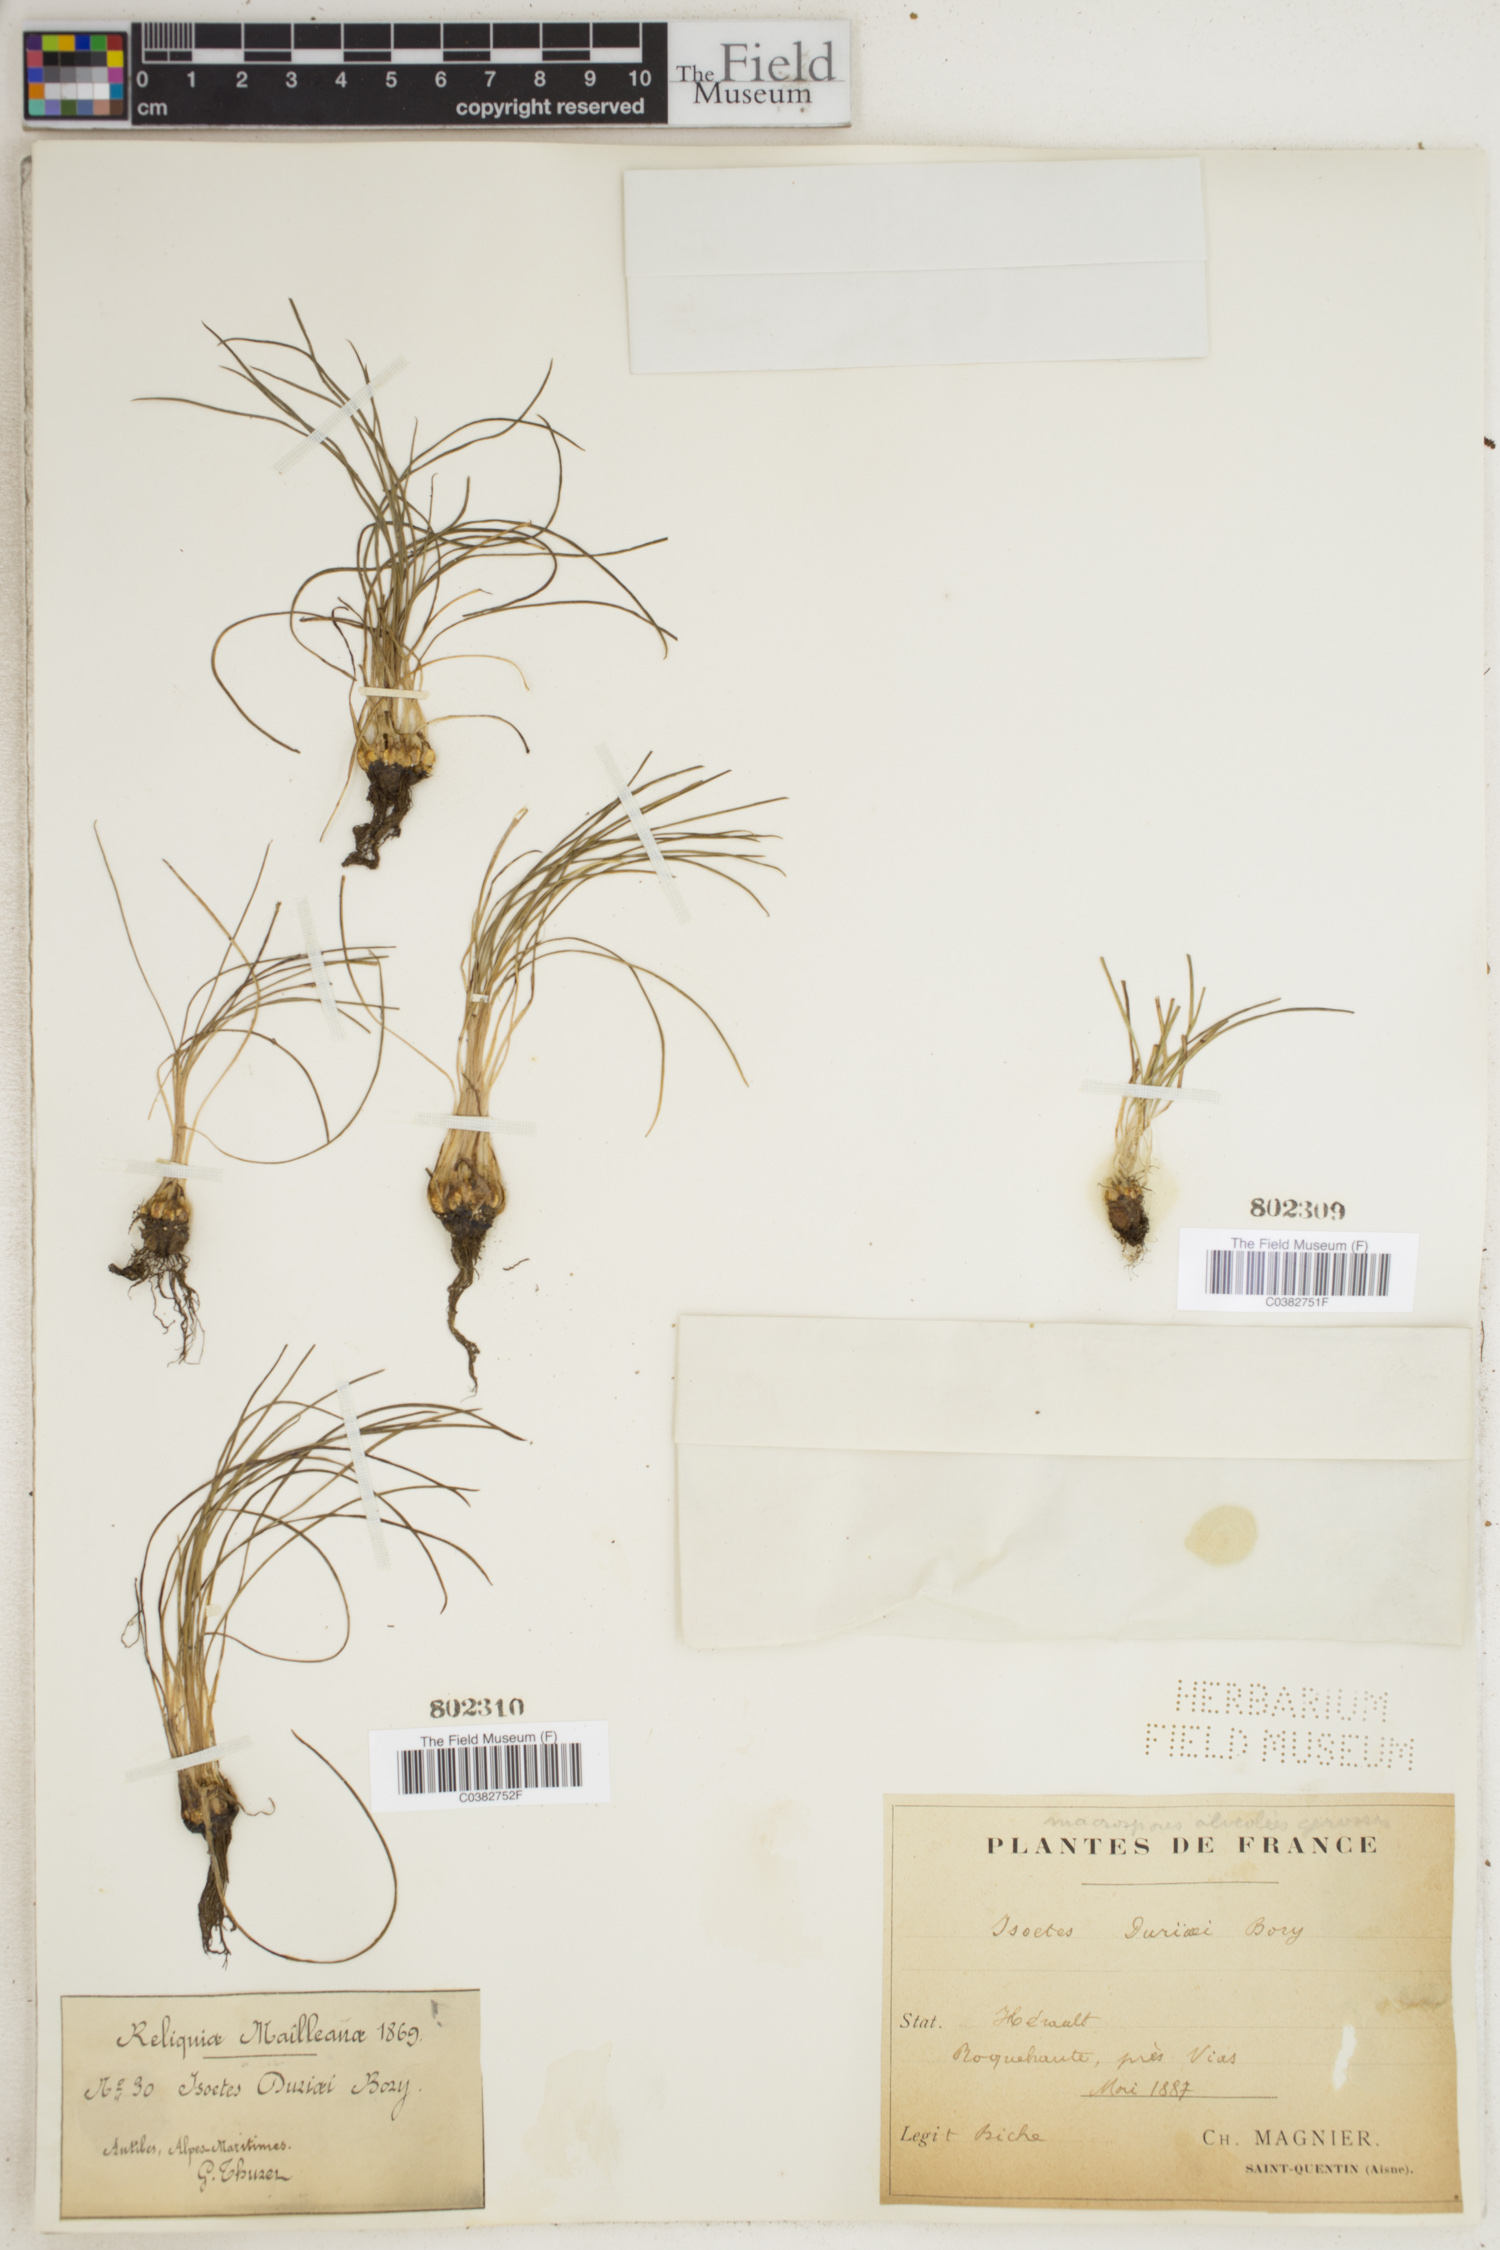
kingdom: Plantae
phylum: Tracheophyta
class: Lycopodiopsida
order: Isoetales
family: Isoetaceae
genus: Isoetes
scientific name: Isoetes duriei
